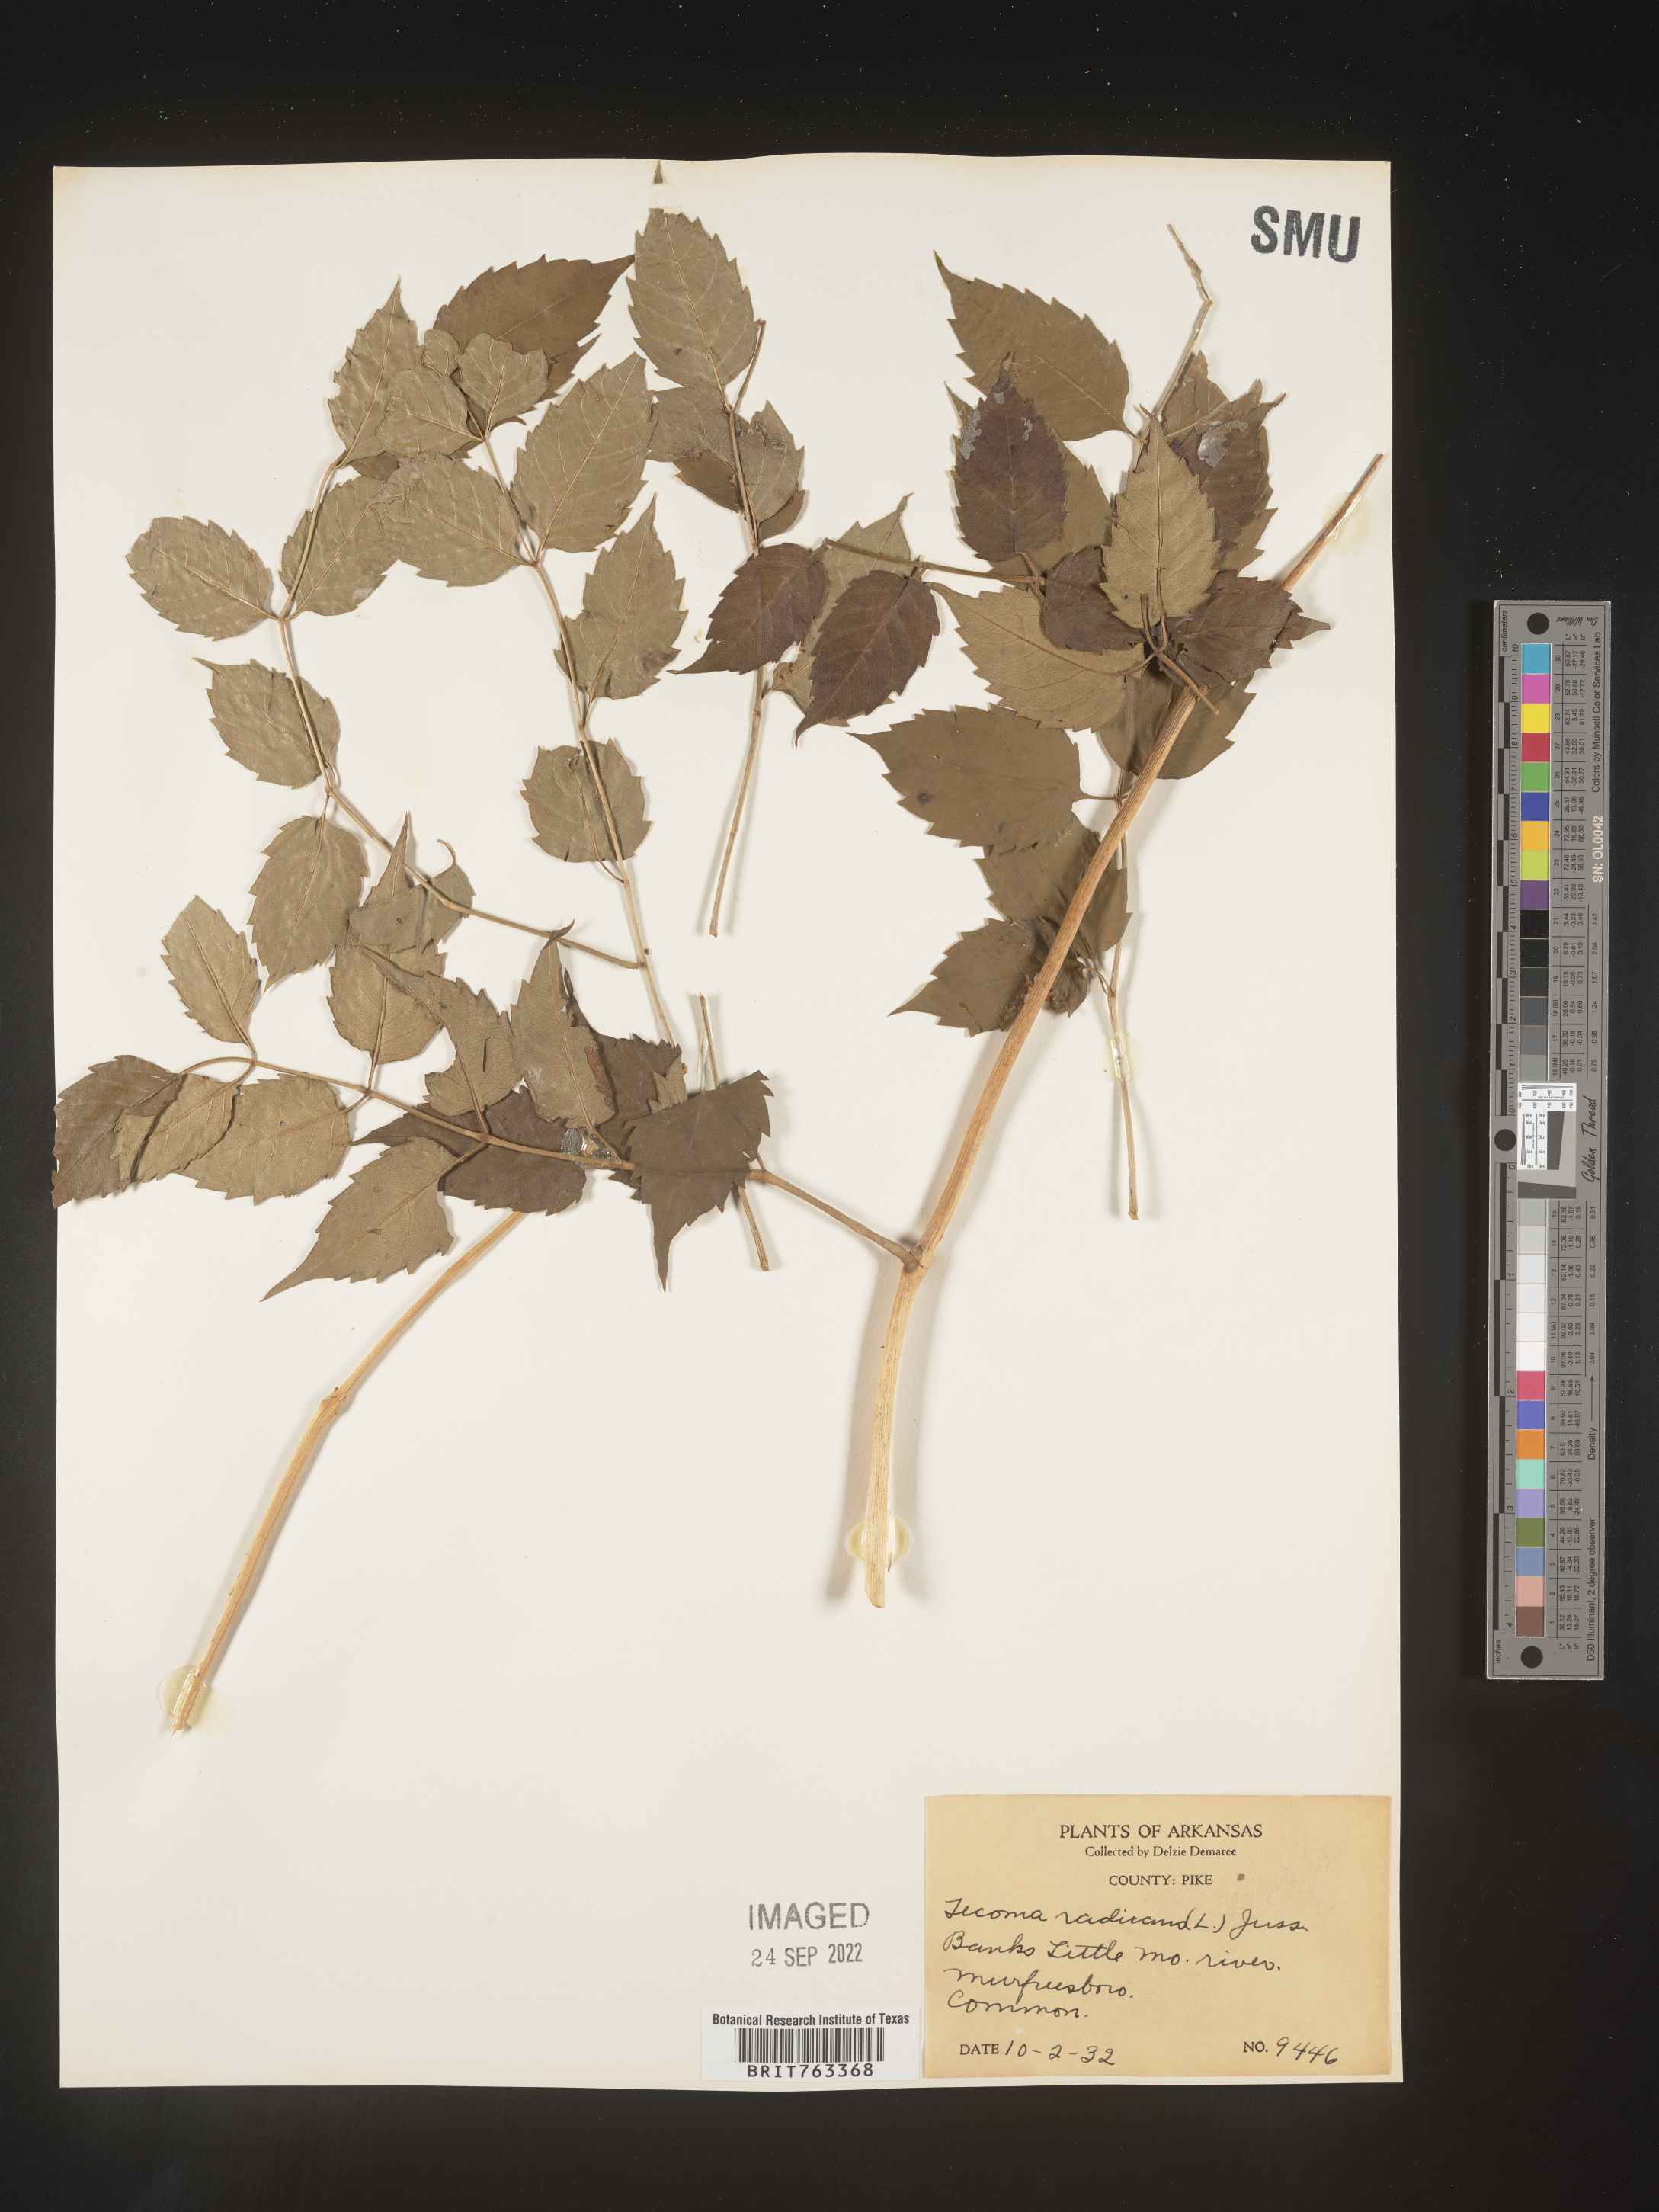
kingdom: Plantae
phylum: Tracheophyta
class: Magnoliopsida
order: Lamiales
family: Bignoniaceae
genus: Campsis
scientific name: Campsis radicans
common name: Trumpet-creeper
